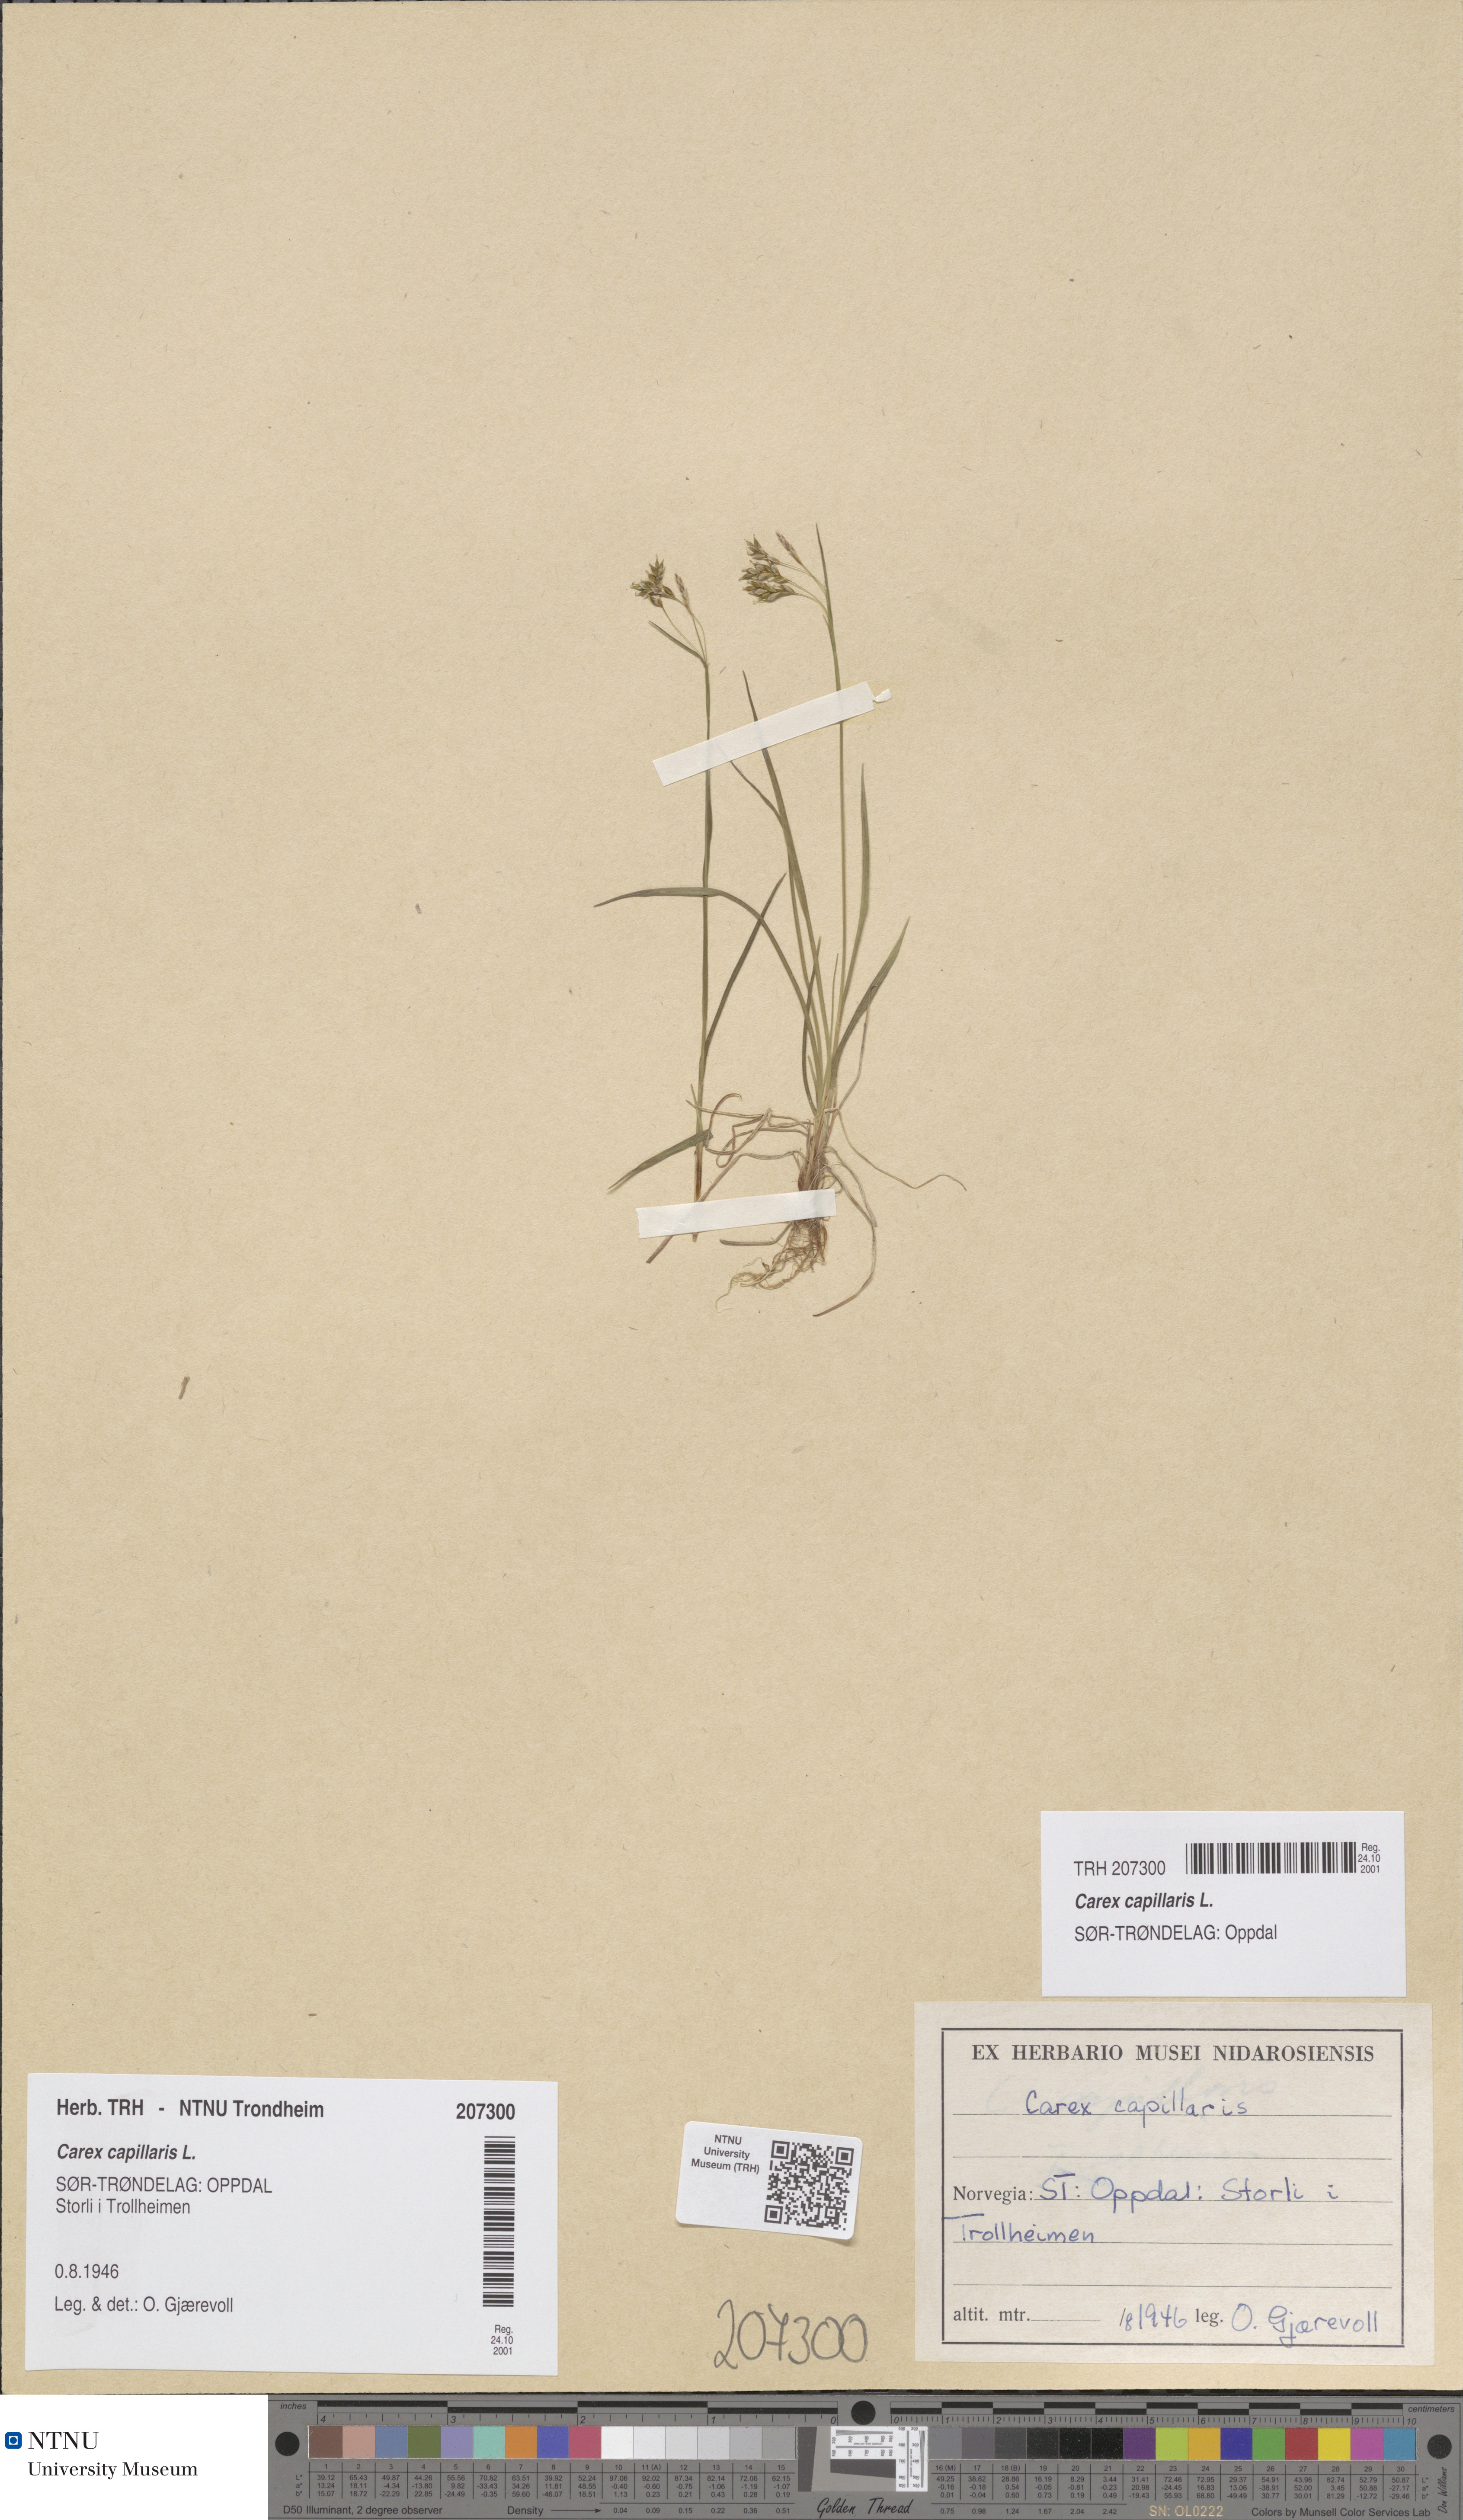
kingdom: Plantae
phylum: Tracheophyta
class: Liliopsida
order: Poales
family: Cyperaceae
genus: Carex
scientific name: Carex capillaris
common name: Hair sedge
